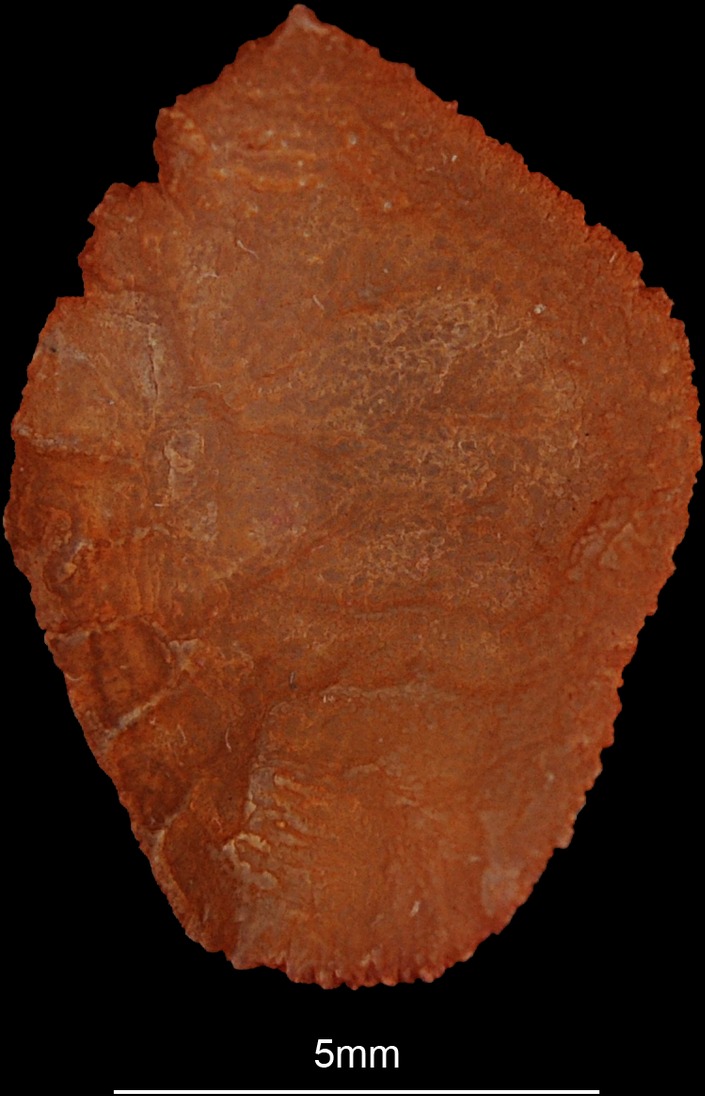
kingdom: Animalia
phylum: Chordata
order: Perciformes
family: Haemulidae
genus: Pomadasys
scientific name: Pomadasys rogerii
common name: Pigsnout grunt
